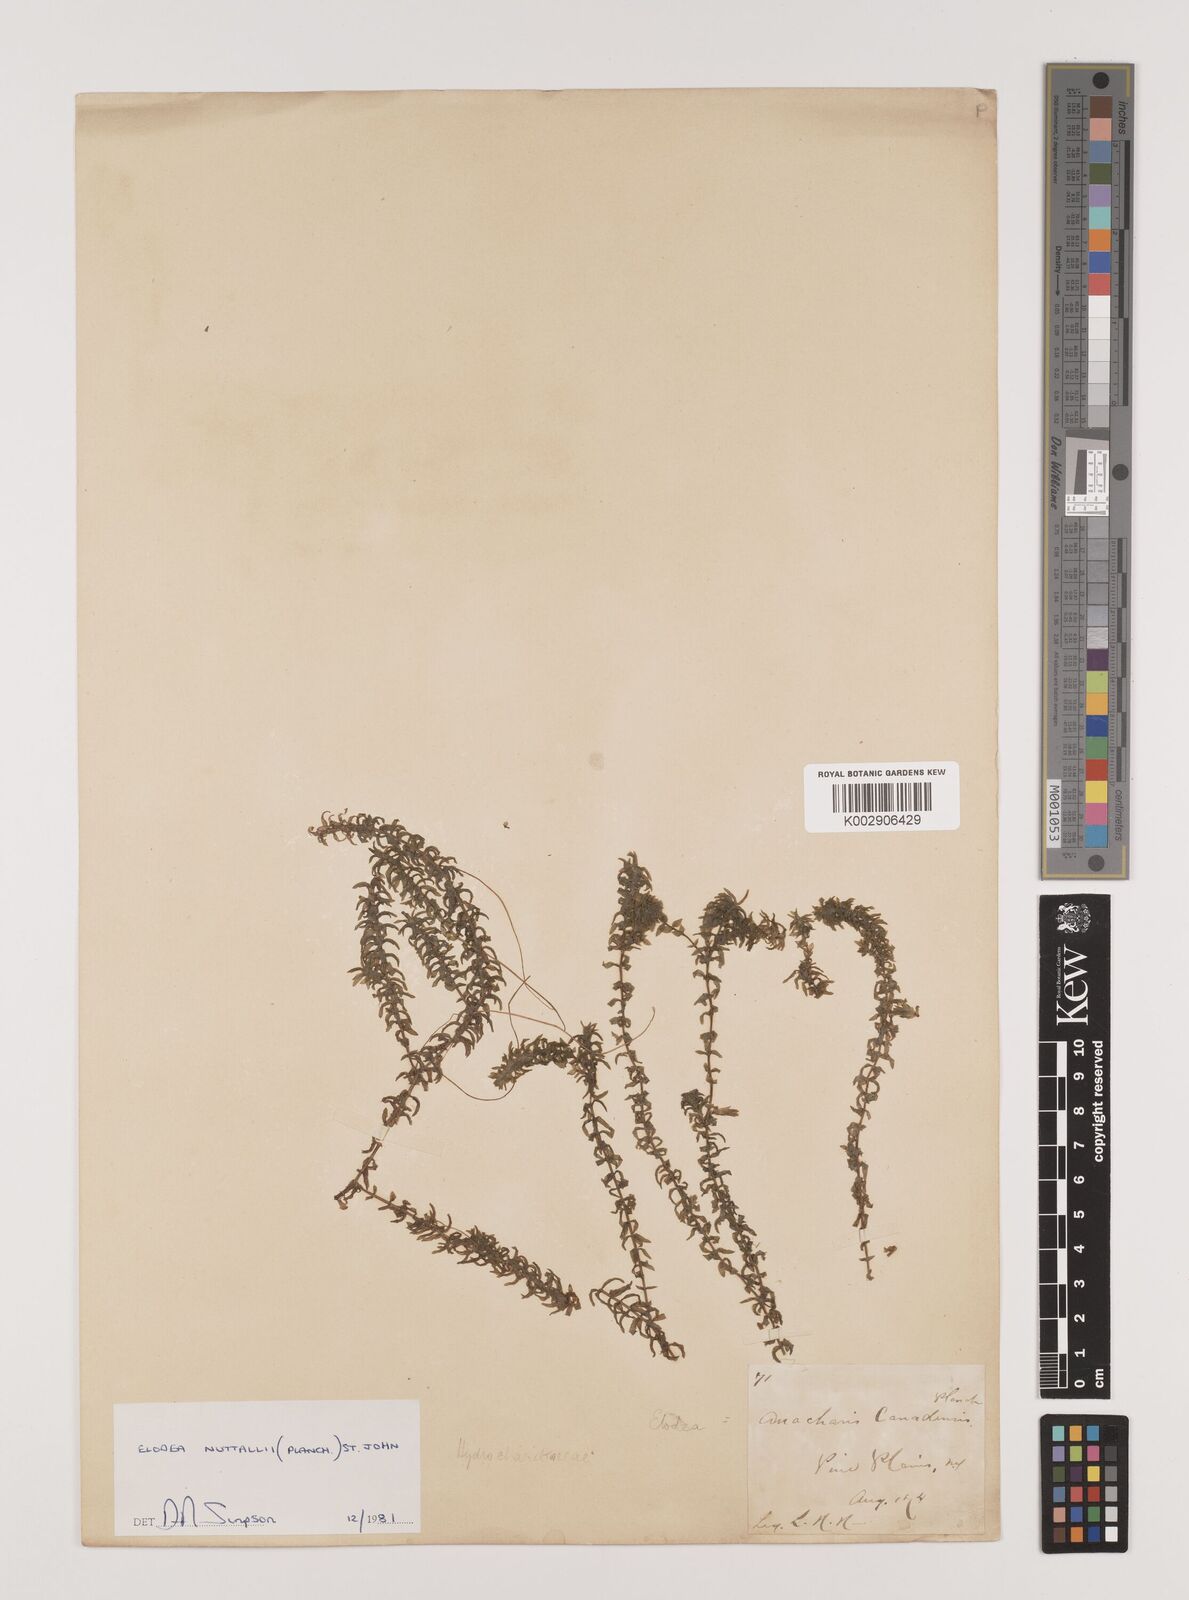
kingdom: Plantae
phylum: Tracheophyta
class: Liliopsida
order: Alismatales
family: Hydrocharitaceae
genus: Elodea
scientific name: Elodea nuttallii
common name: Nuttall's waterweed
